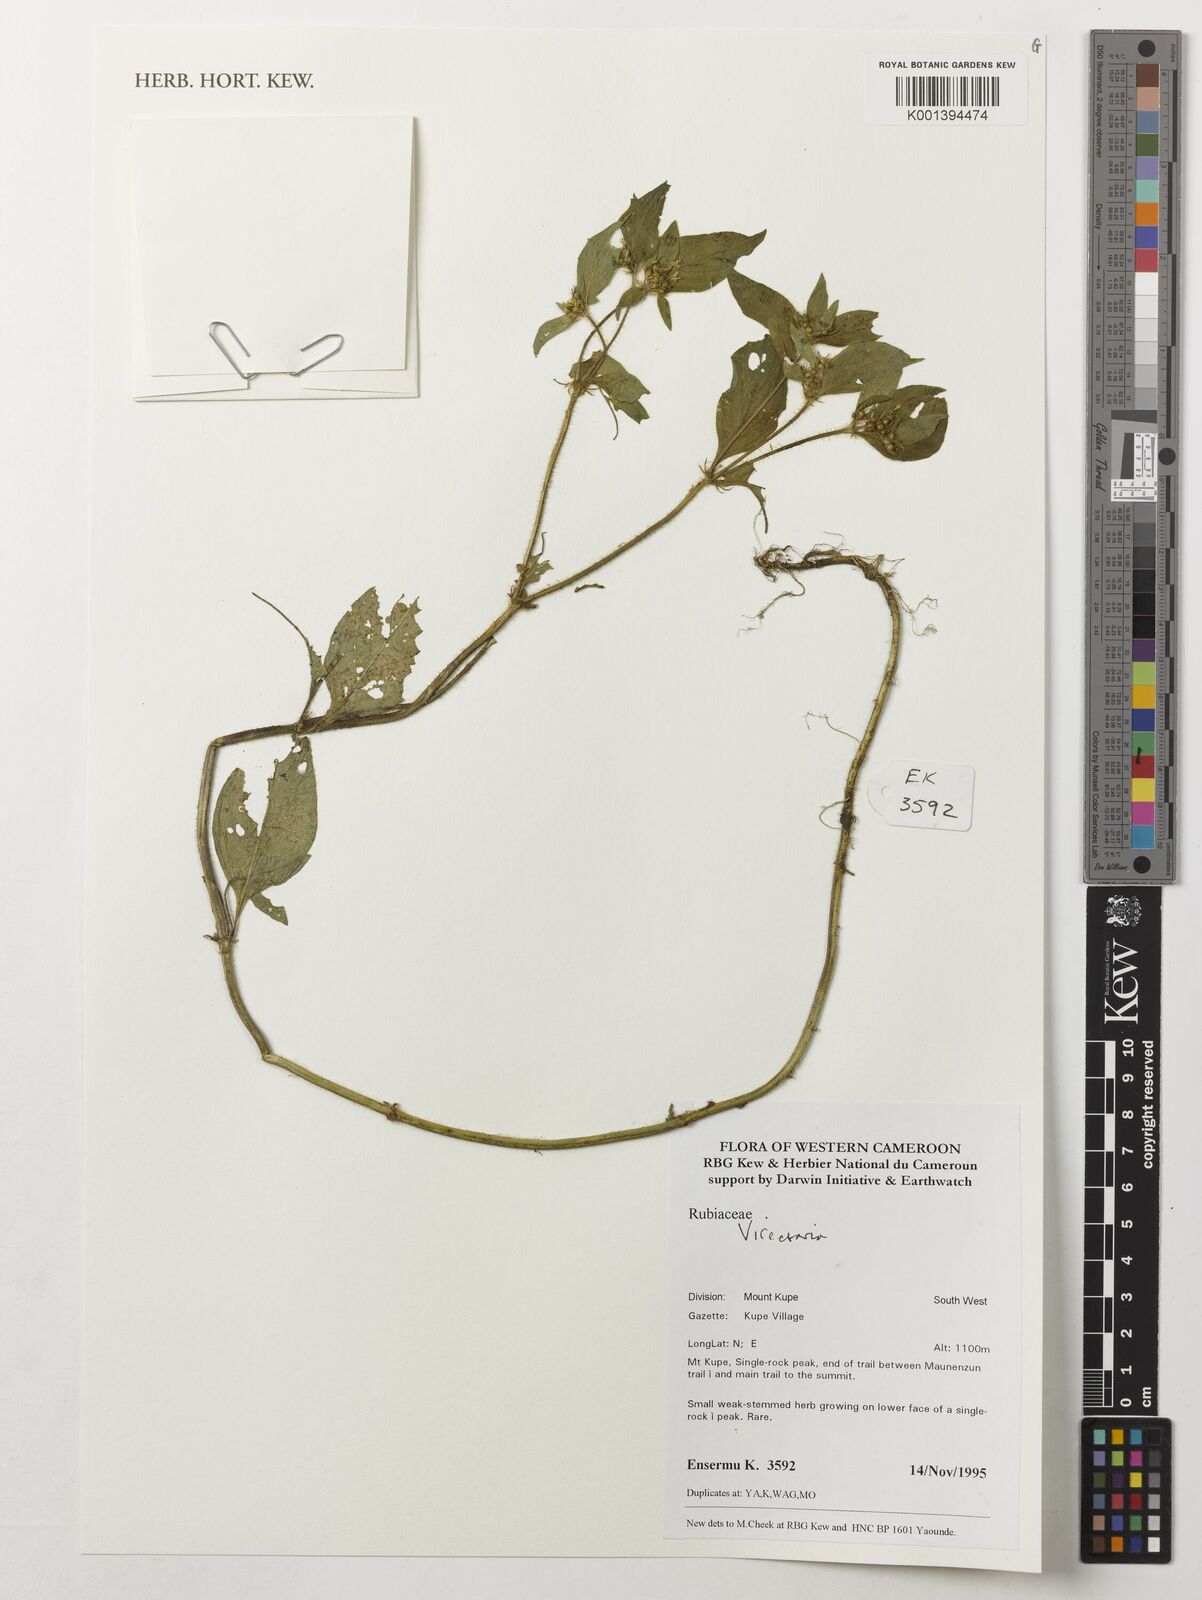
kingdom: Plantae
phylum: Tracheophyta
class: Magnoliopsida
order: Gentianales
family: Rubiaceae
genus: Virectaria
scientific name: Virectaria
